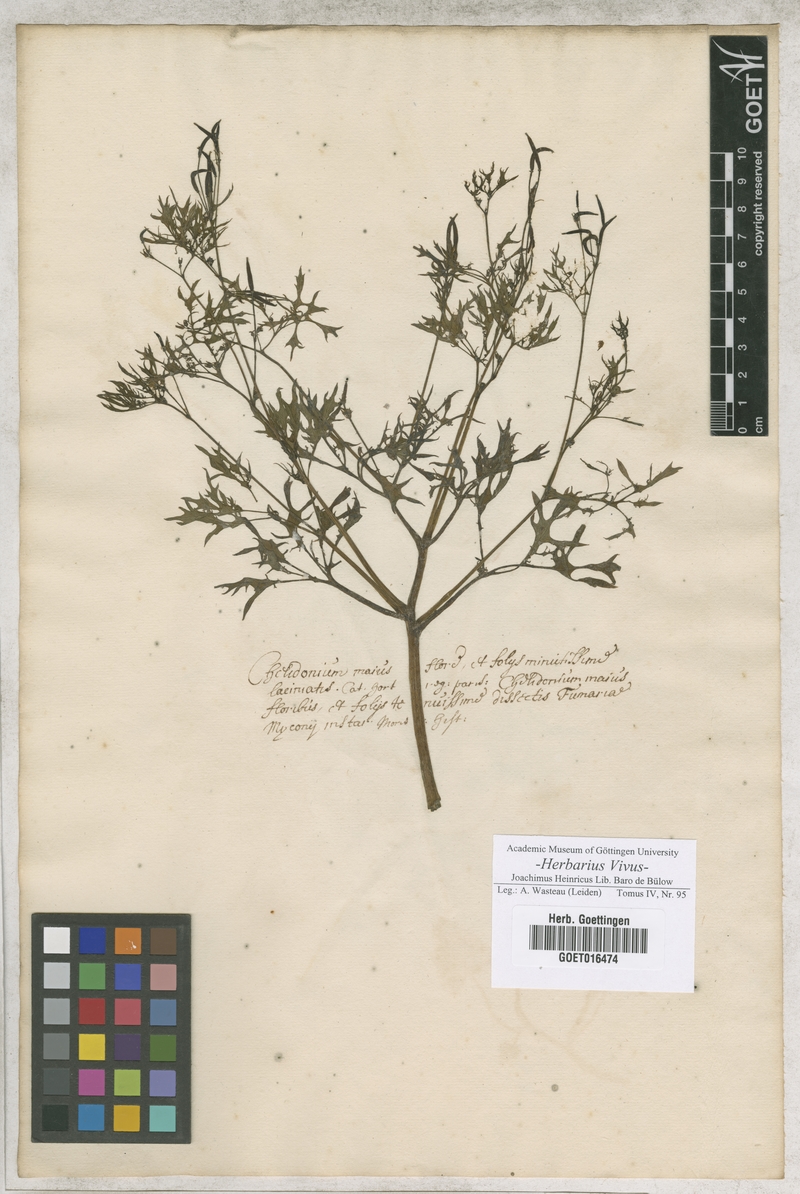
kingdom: Plantae
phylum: Tracheophyta
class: Magnoliopsida
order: Ranunculales
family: Papaveraceae
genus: Chelidonium
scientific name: Chelidonium majus
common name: Greater celandine
